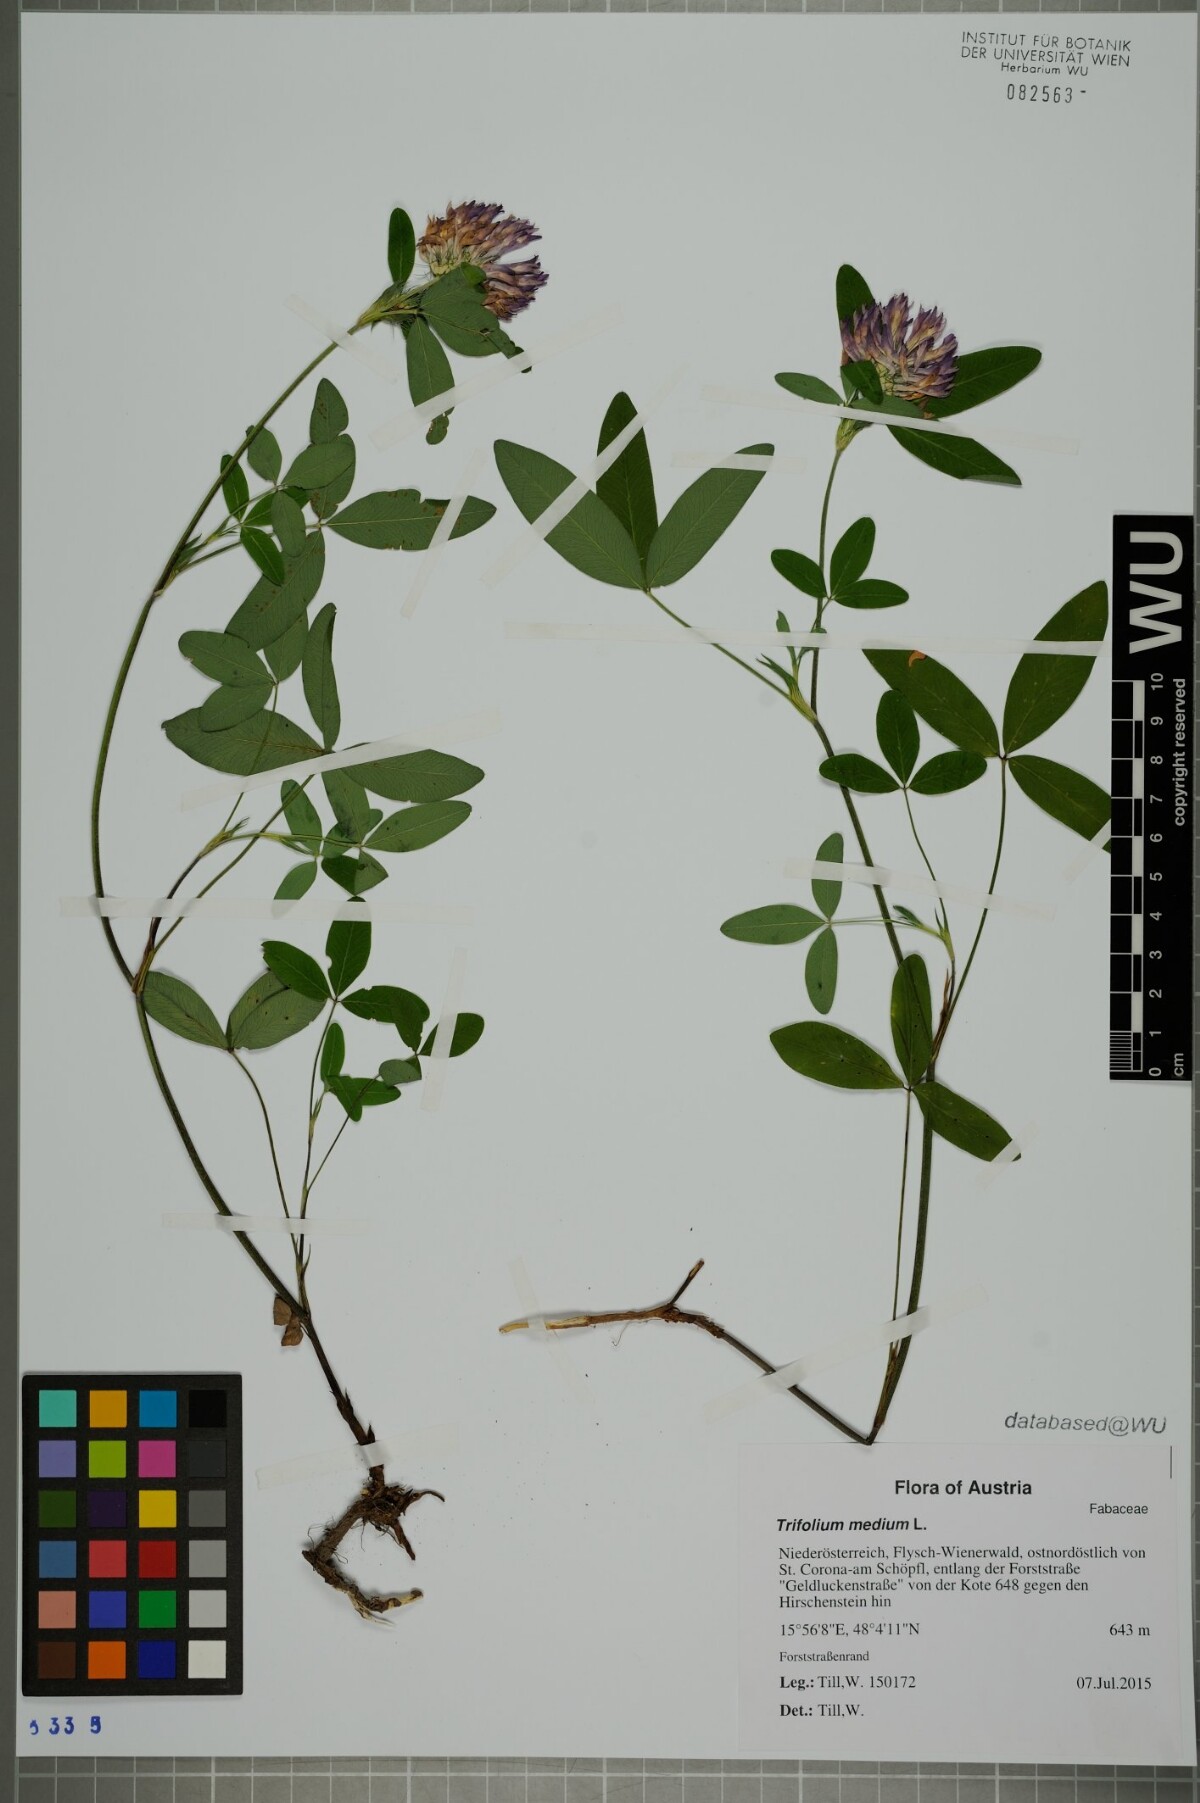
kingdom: Plantae
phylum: Tracheophyta
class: Magnoliopsida
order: Fabales
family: Fabaceae
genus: Trifolium
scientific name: Trifolium medium
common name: Zigzag clover
